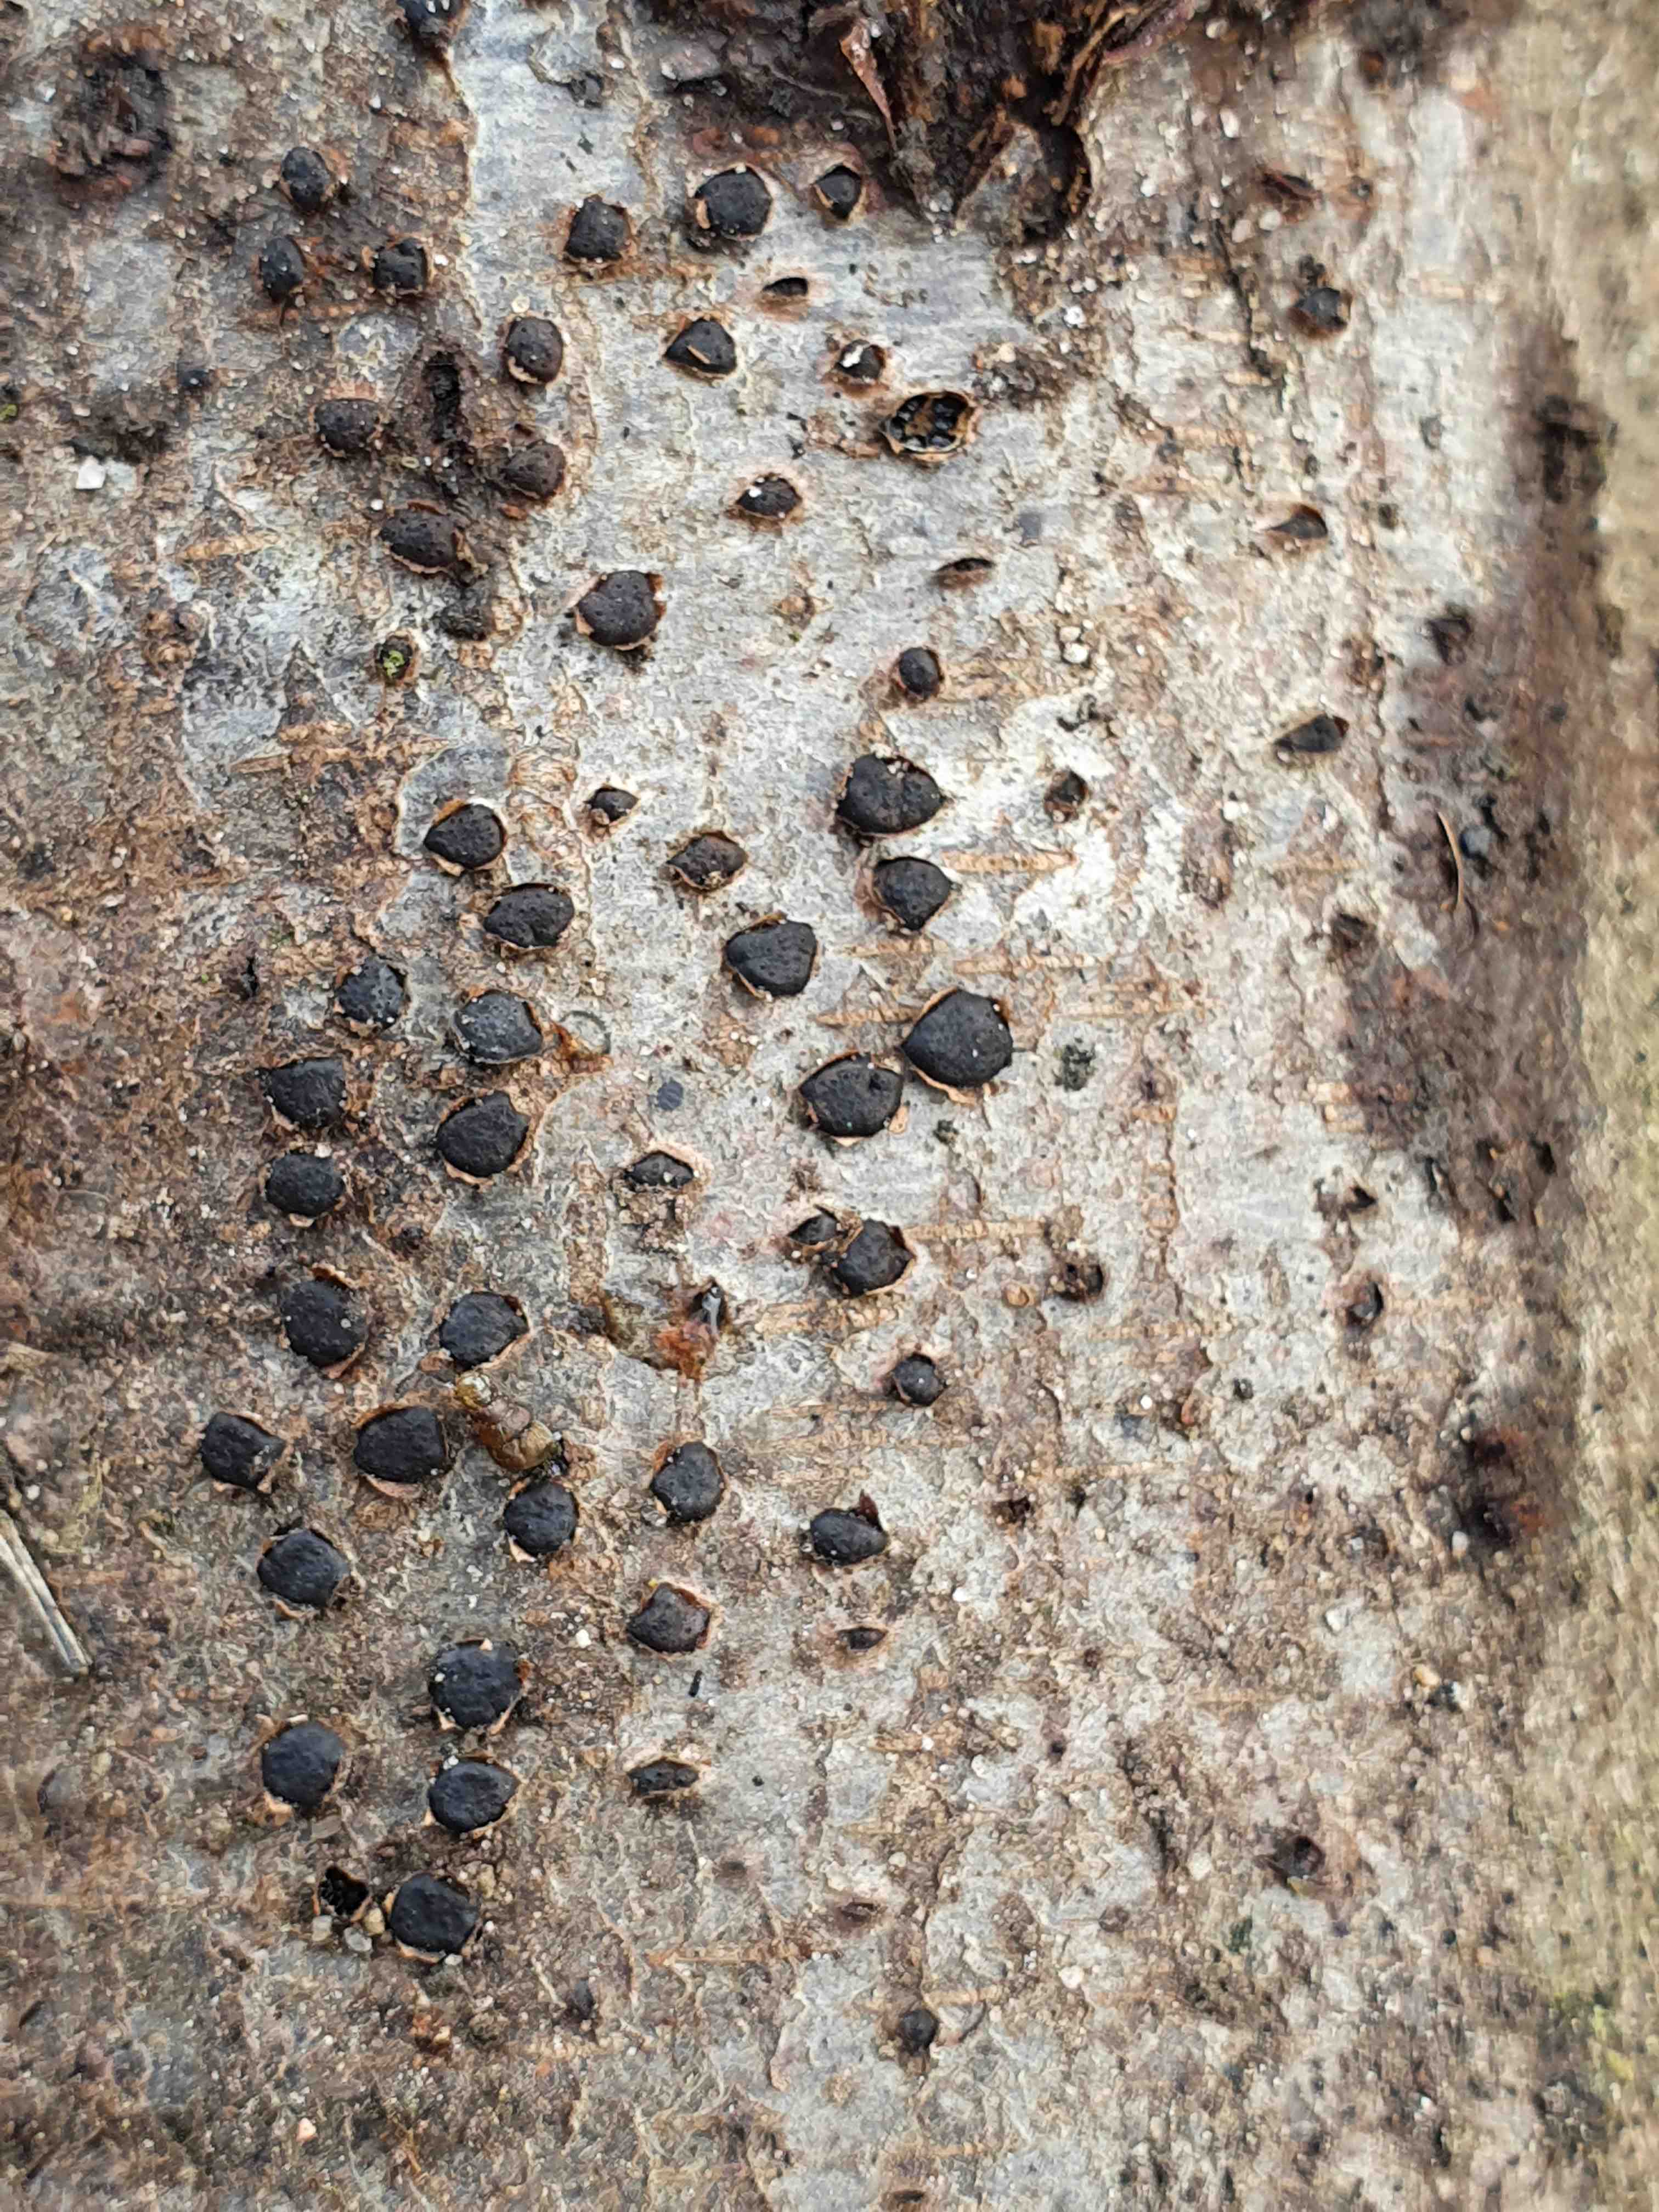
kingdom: Fungi
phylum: Ascomycota
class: Sordariomycetes
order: Xylariales
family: Diatrypaceae
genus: Diatrype
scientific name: Diatrype disciformis
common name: kant-kulskorpe
